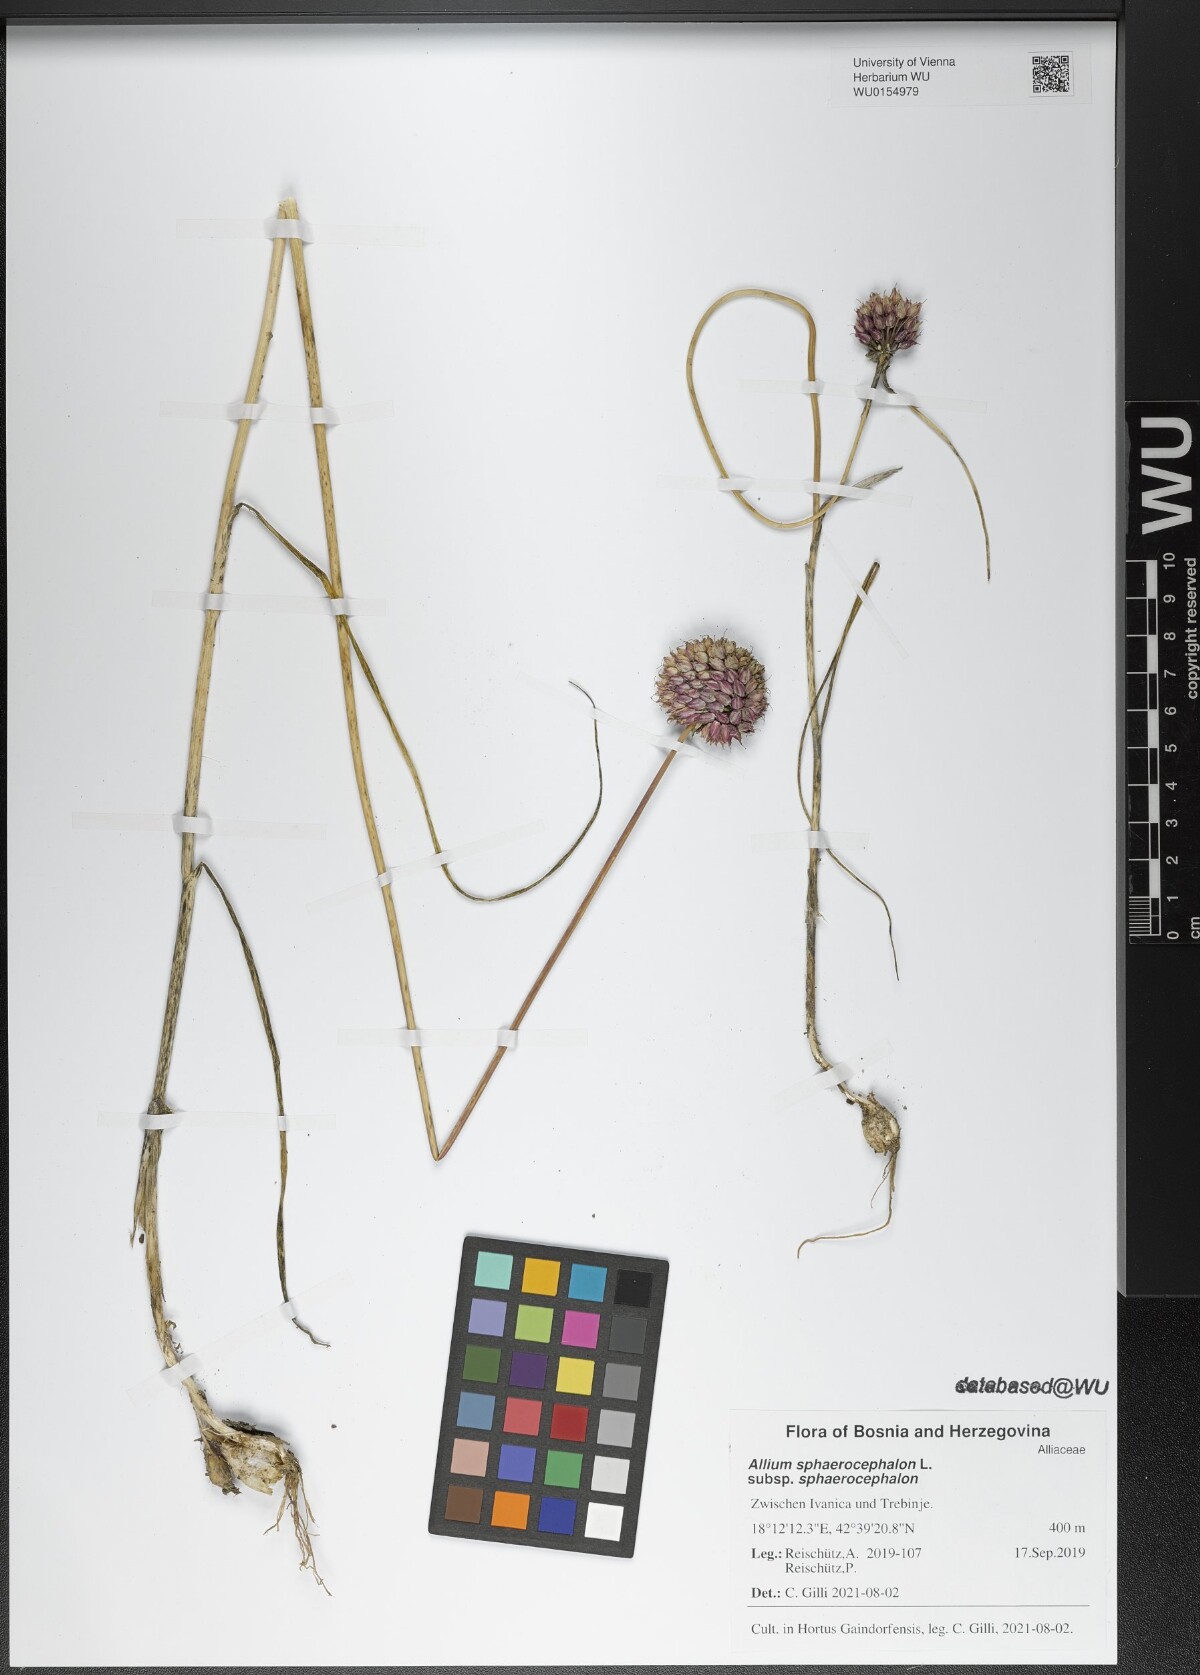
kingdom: Plantae
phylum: Tracheophyta
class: Liliopsida
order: Asparagales
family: Amaryllidaceae
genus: Allium
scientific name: Allium sphaerocephalon
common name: Round-headed leek
